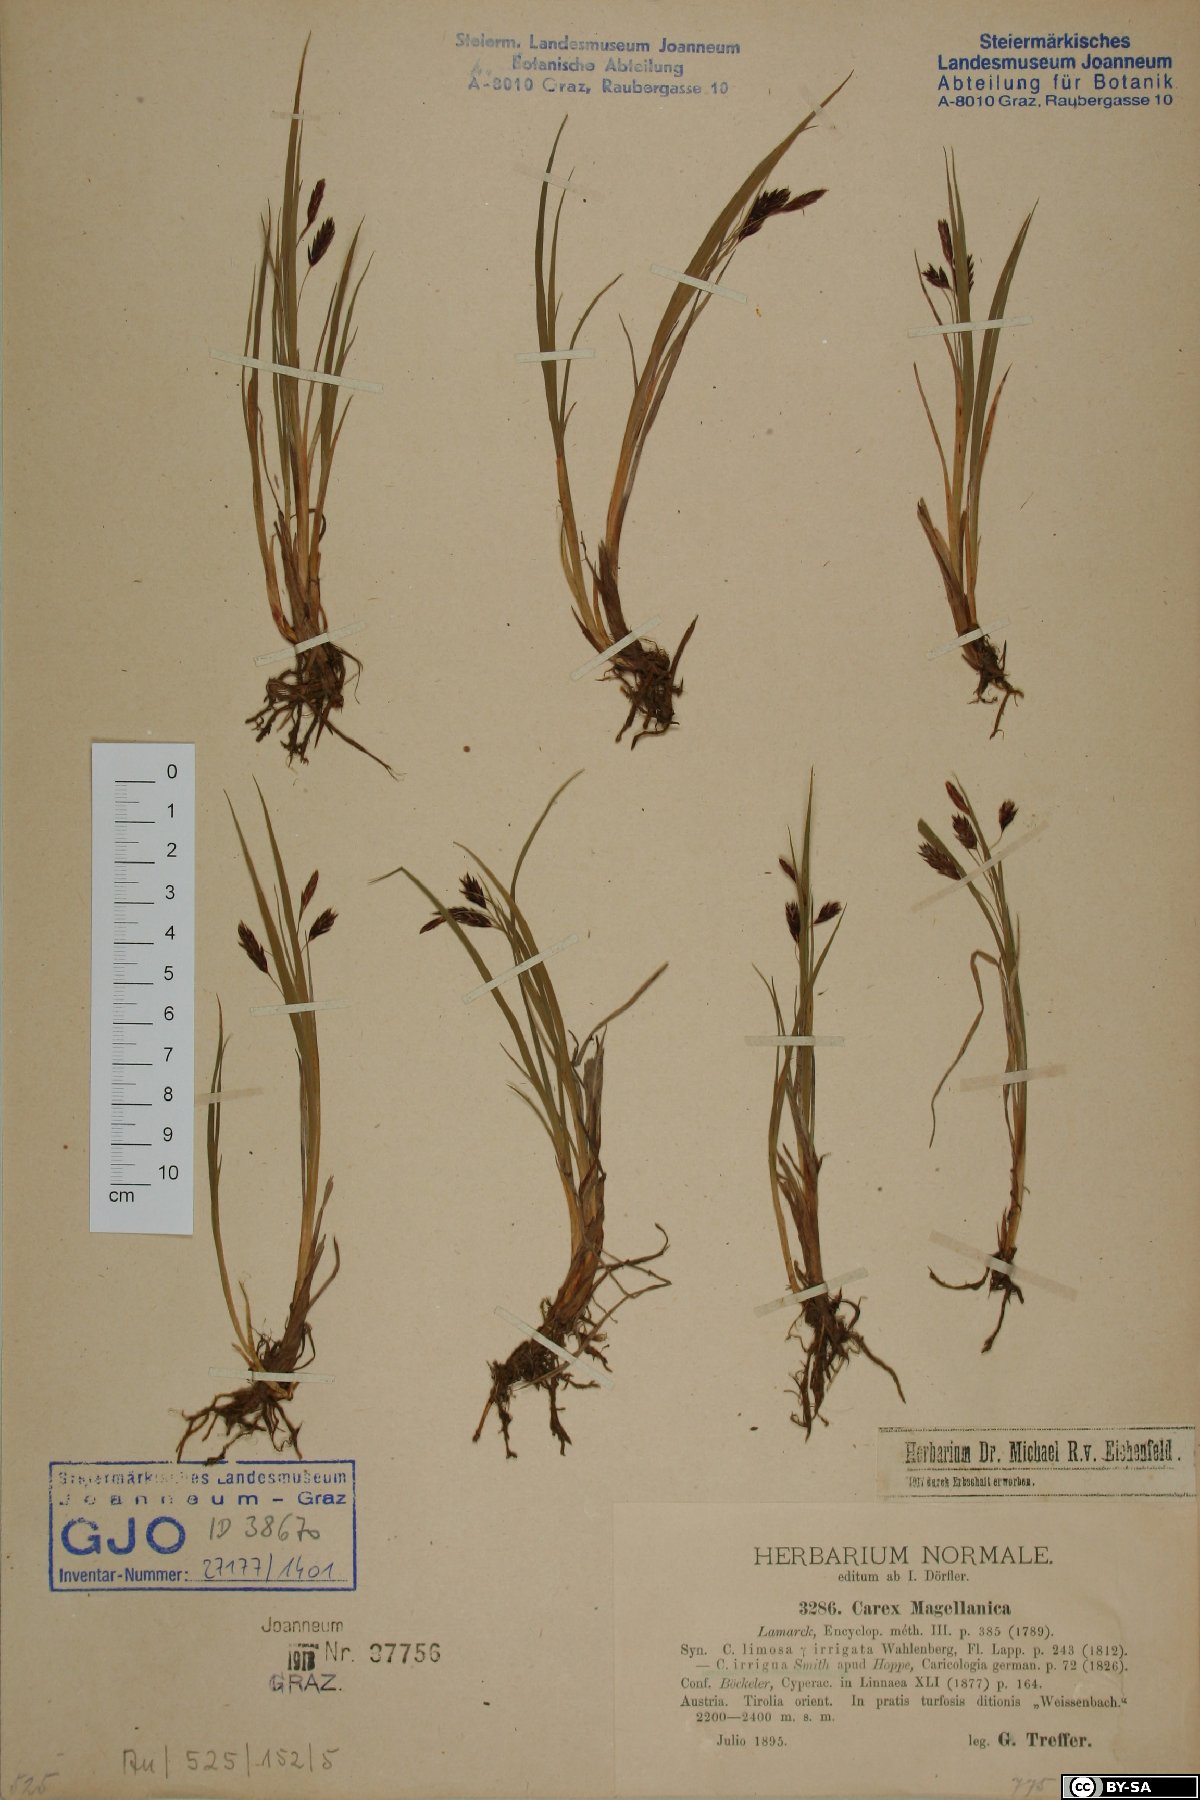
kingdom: Plantae
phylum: Tracheophyta
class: Liliopsida
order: Poales
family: Cyperaceae
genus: Carex
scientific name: Carex magellanica
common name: Bog sedge
